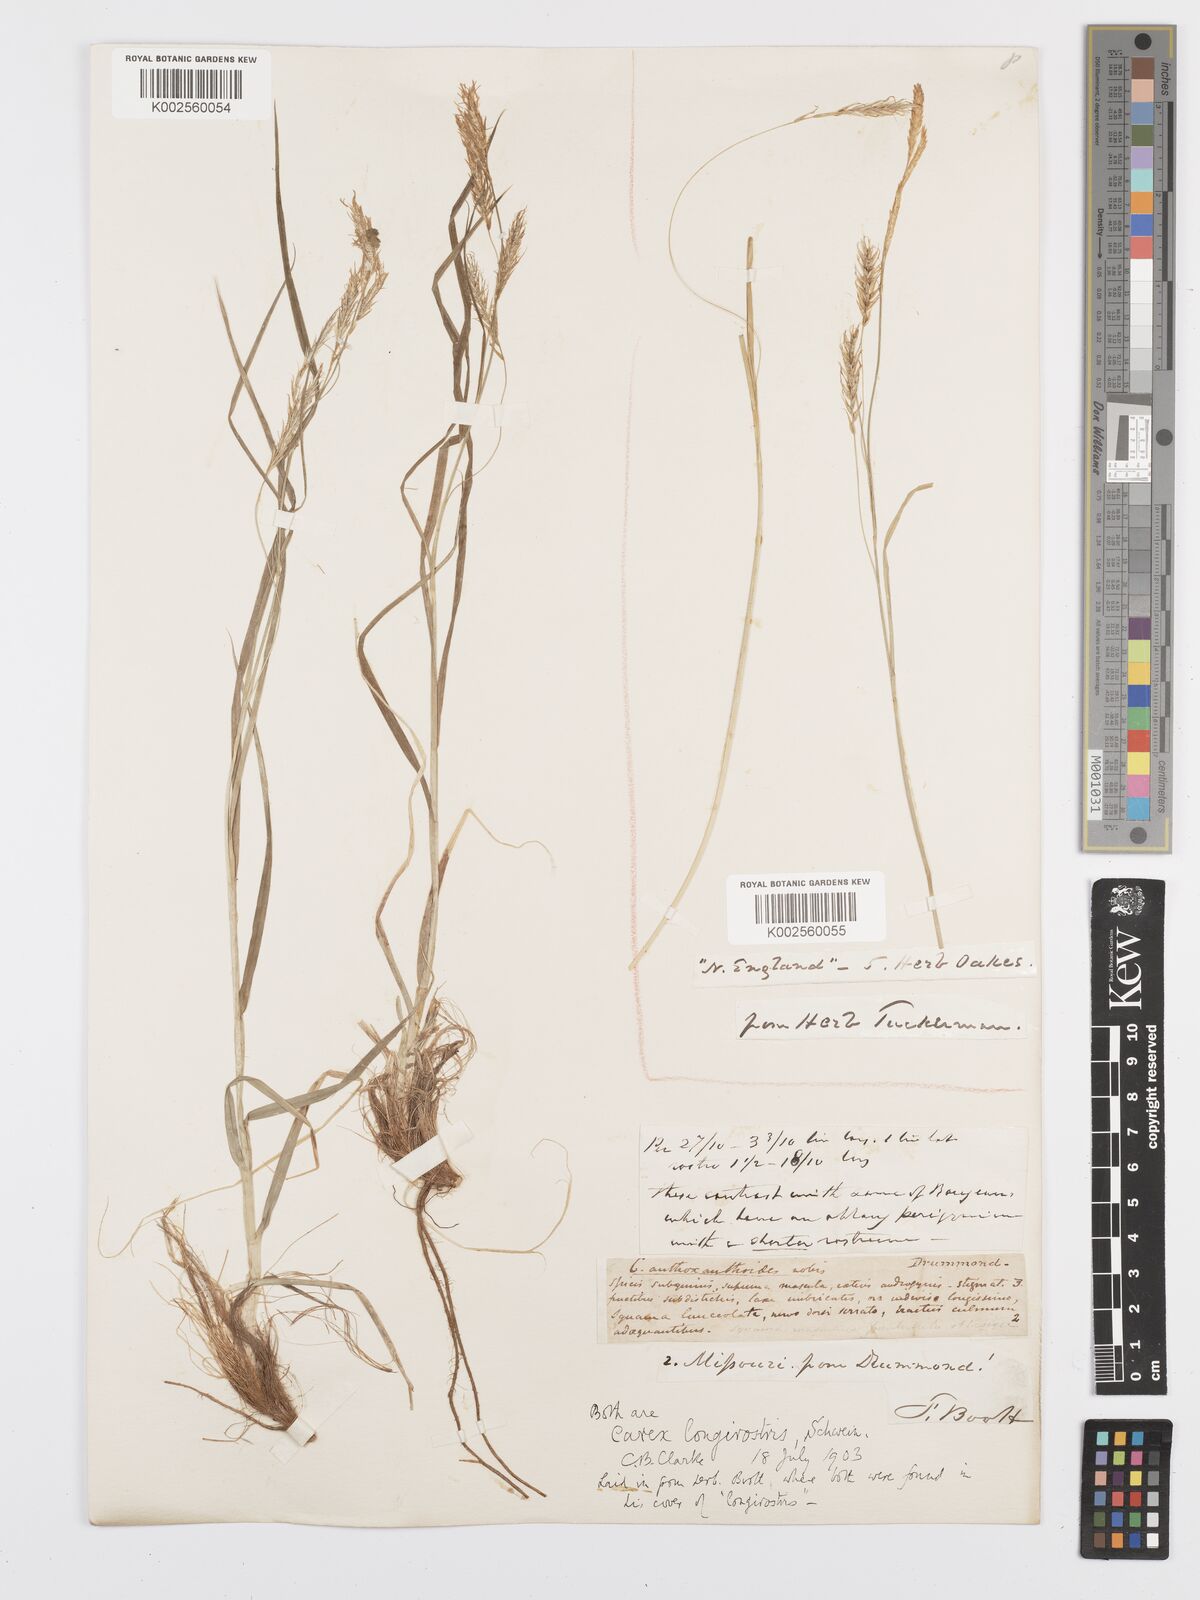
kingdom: Plantae
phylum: Tracheophyta
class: Liliopsida
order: Poales
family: Cyperaceae
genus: Carex
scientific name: Carex sprengelii
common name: Long-beaked sedge
